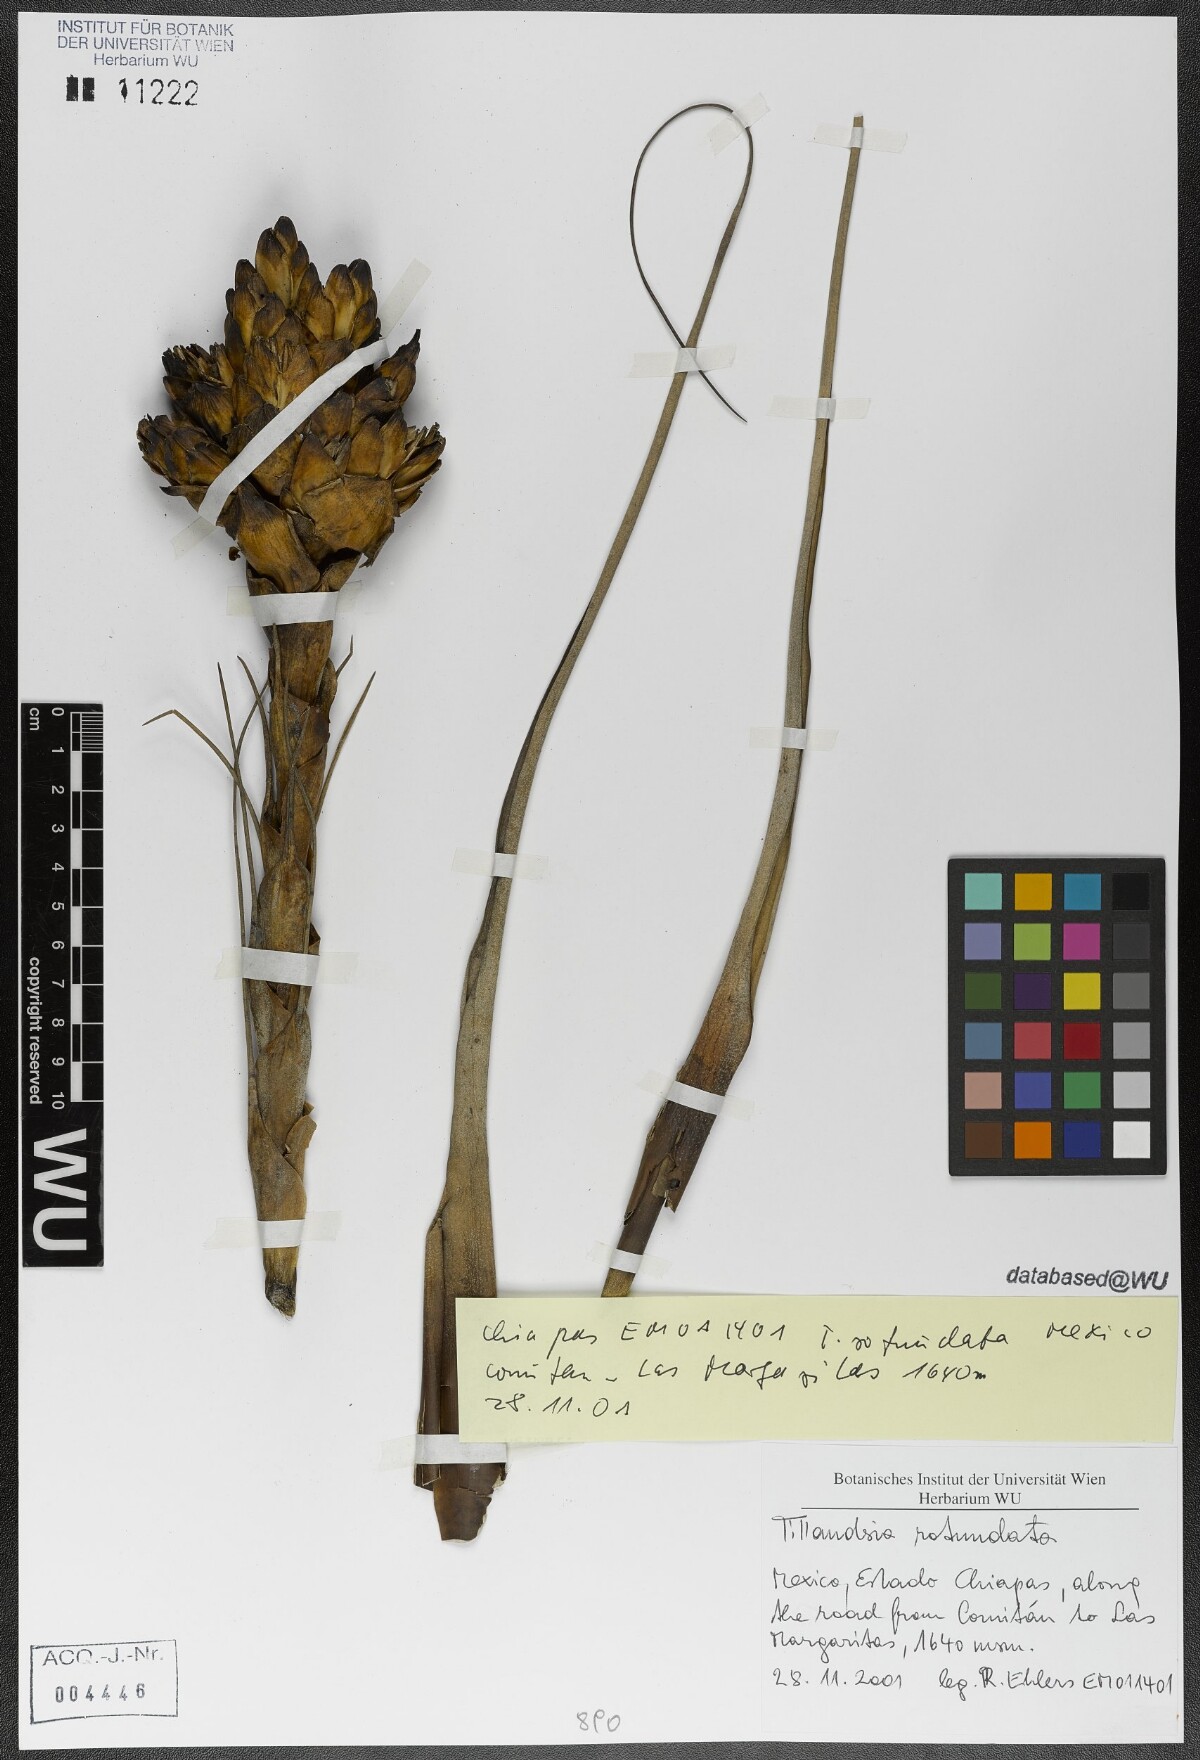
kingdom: Plantae
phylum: Tracheophyta
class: Liliopsida
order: Poales
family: Bromeliaceae
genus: Tillandsia
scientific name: Tillandsia rotundata
